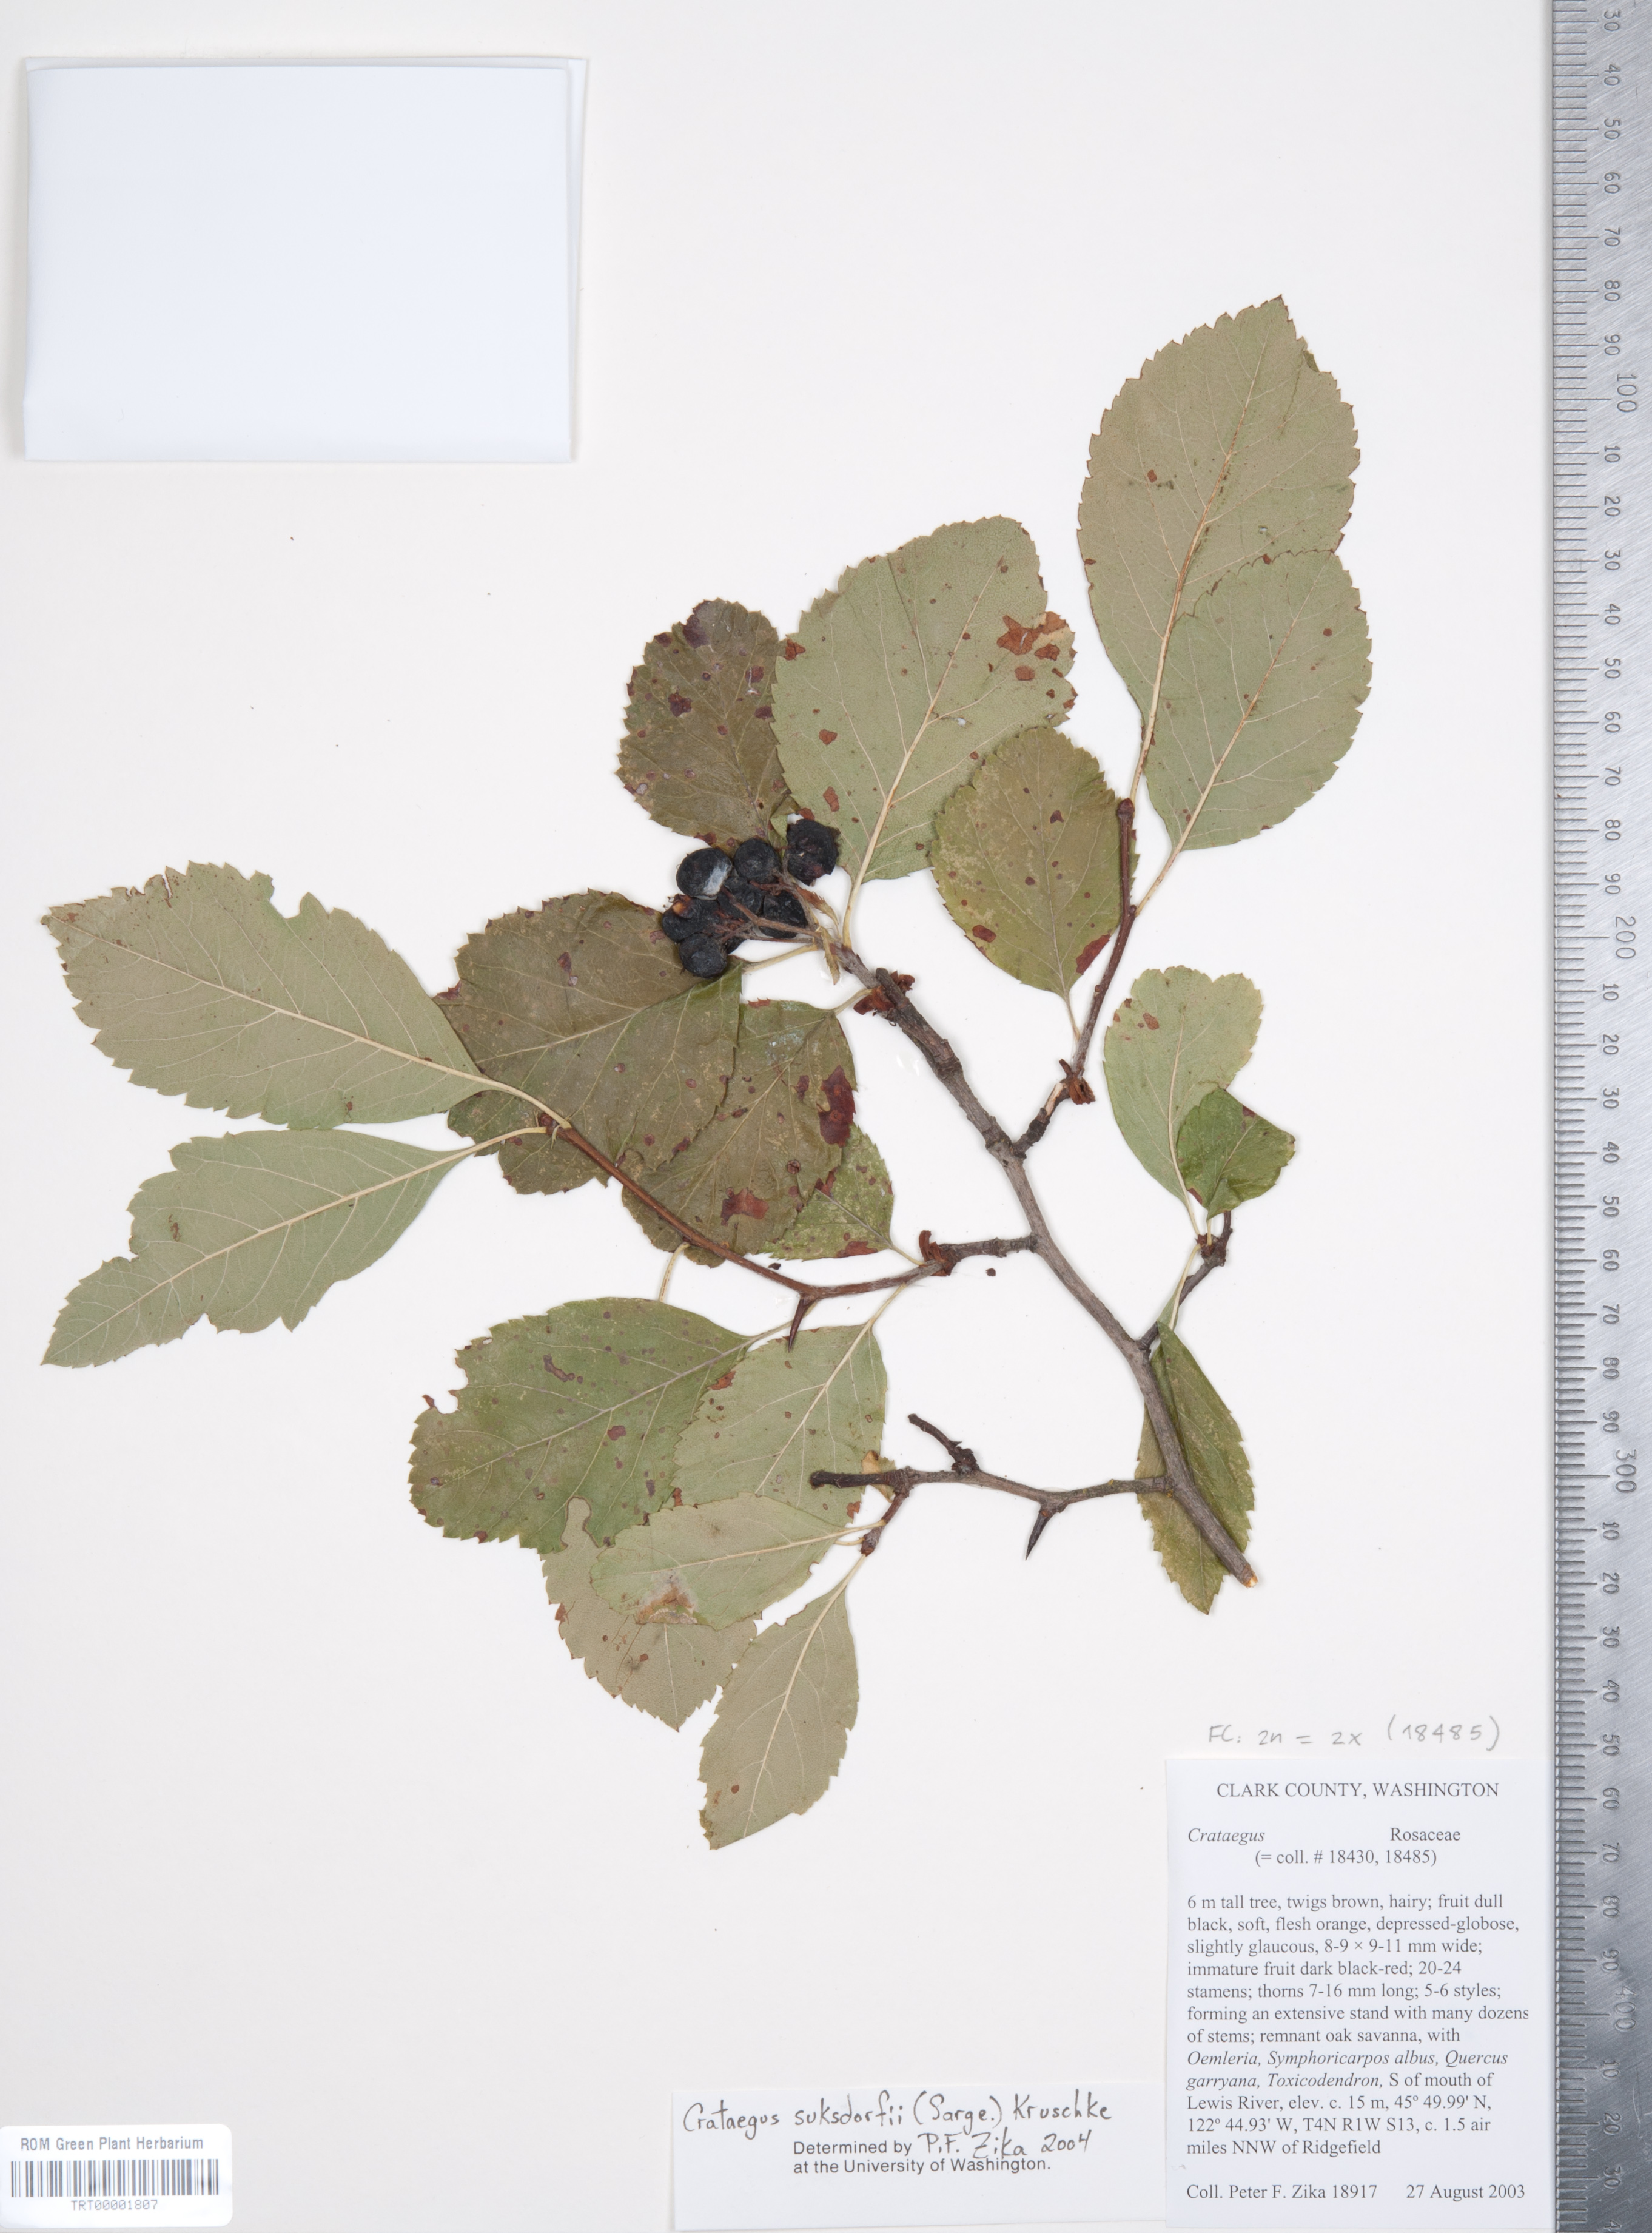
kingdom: Plantae
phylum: Tracheophyta
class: Magnoliopsida
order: Rosales
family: Rosaceae
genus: Crataegus
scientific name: Crataegus gaylussacia
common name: Huckleberry hawthorn
